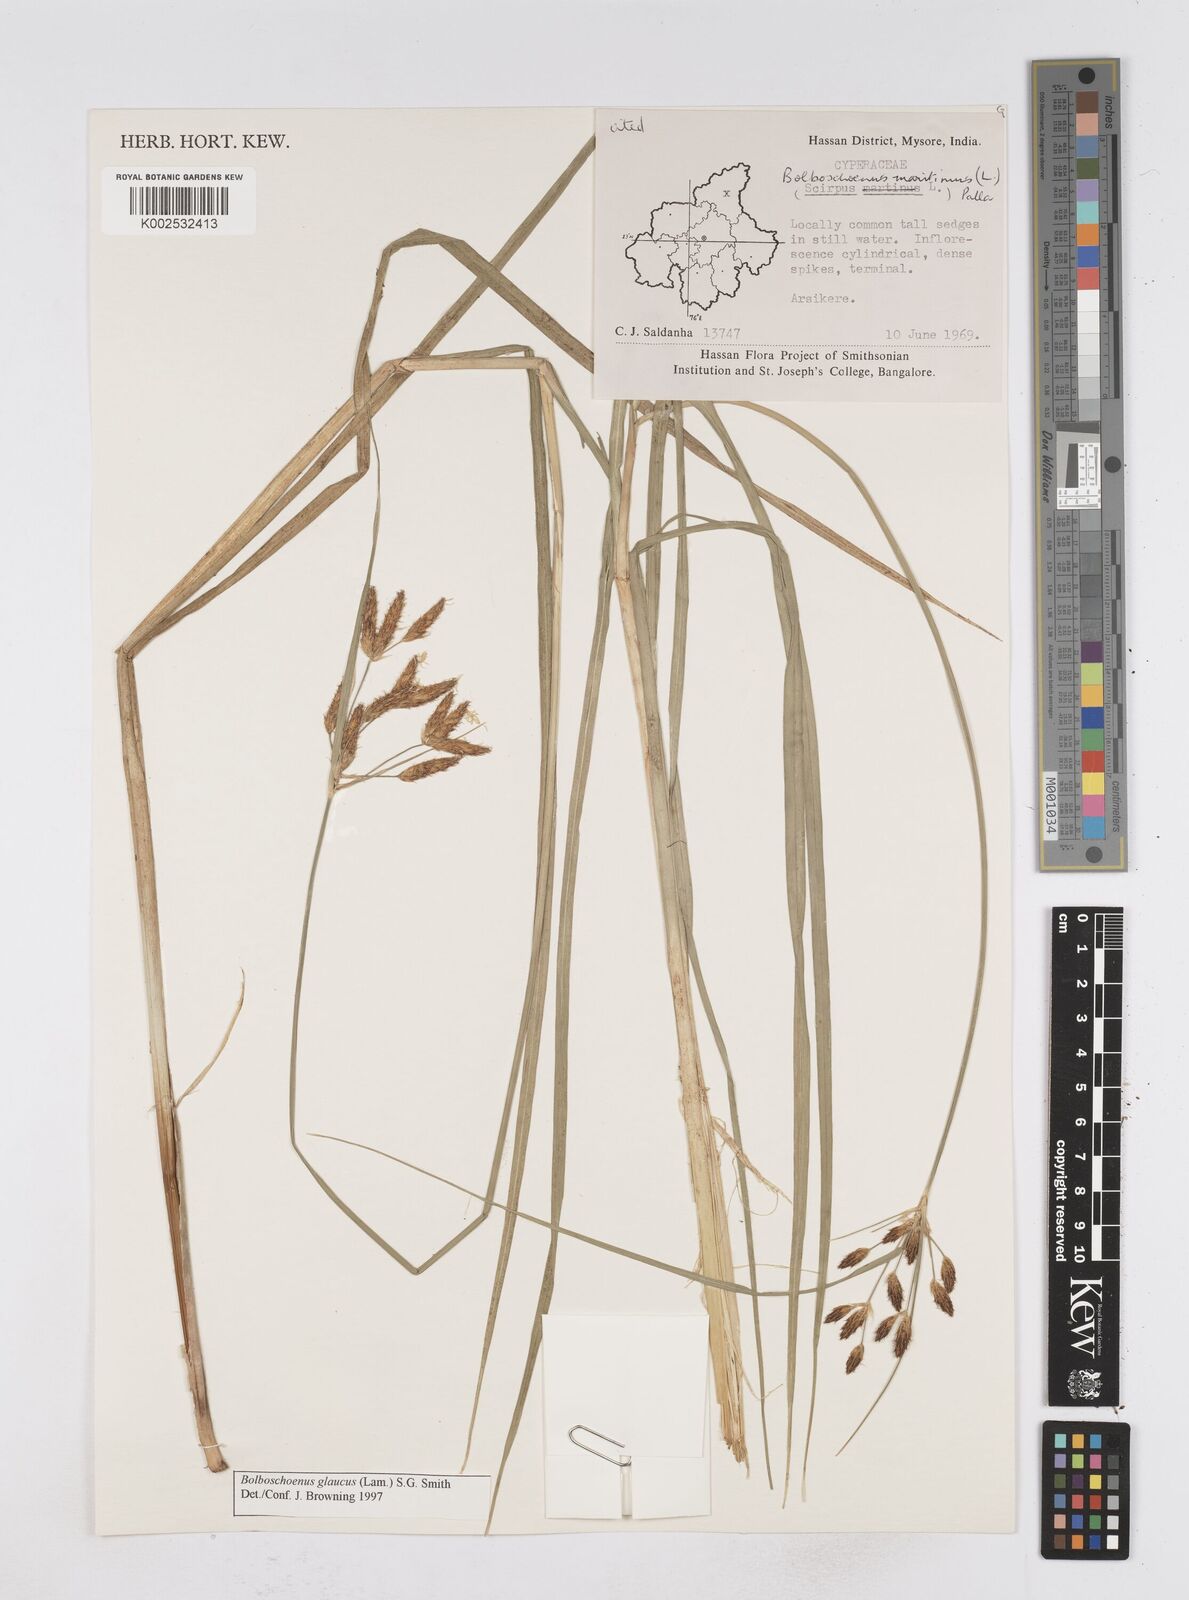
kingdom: Plantae
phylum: Tracheophyta
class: Liliopsida
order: Poales
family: Cyperaceae
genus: Bolboschoenus
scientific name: Bolboschoenus maritimus
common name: Sea club-rush
